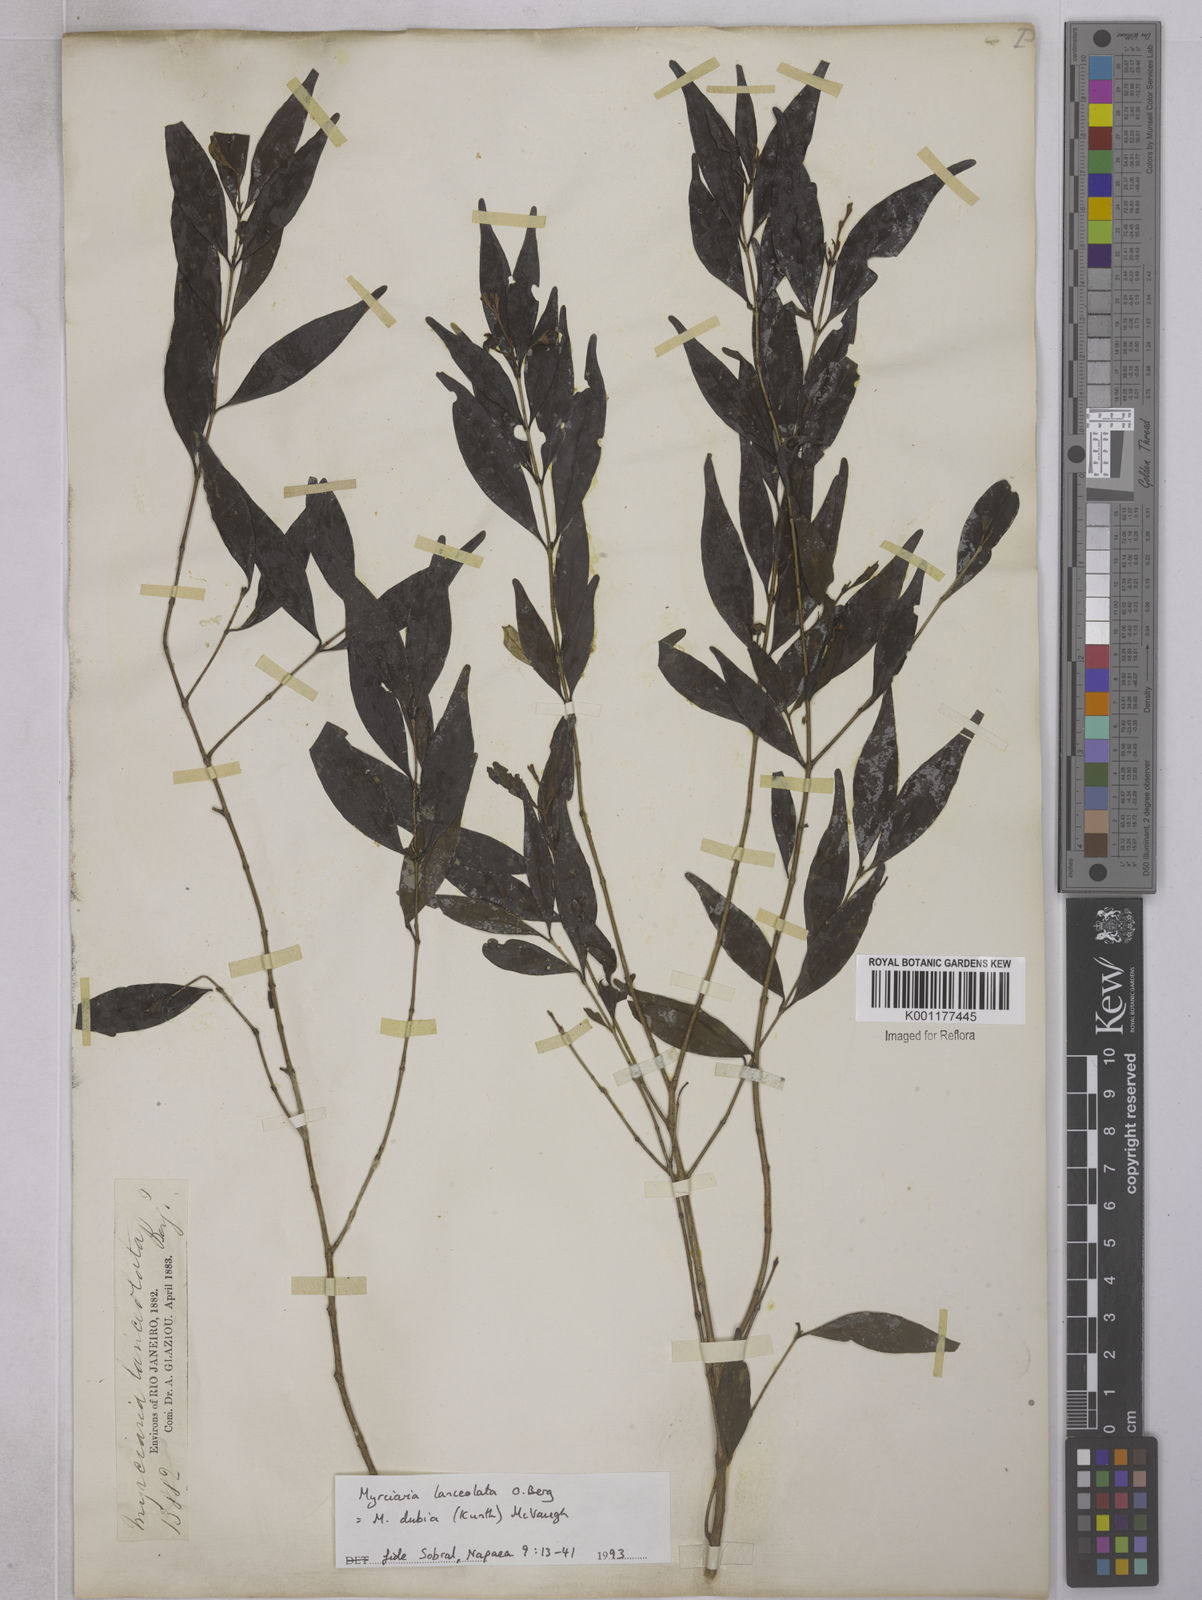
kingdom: Plantae
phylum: Tracheophyta
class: Magnoliopsida
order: Myrtales
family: Myrtaceae
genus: Eugenia
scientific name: Eugenia
